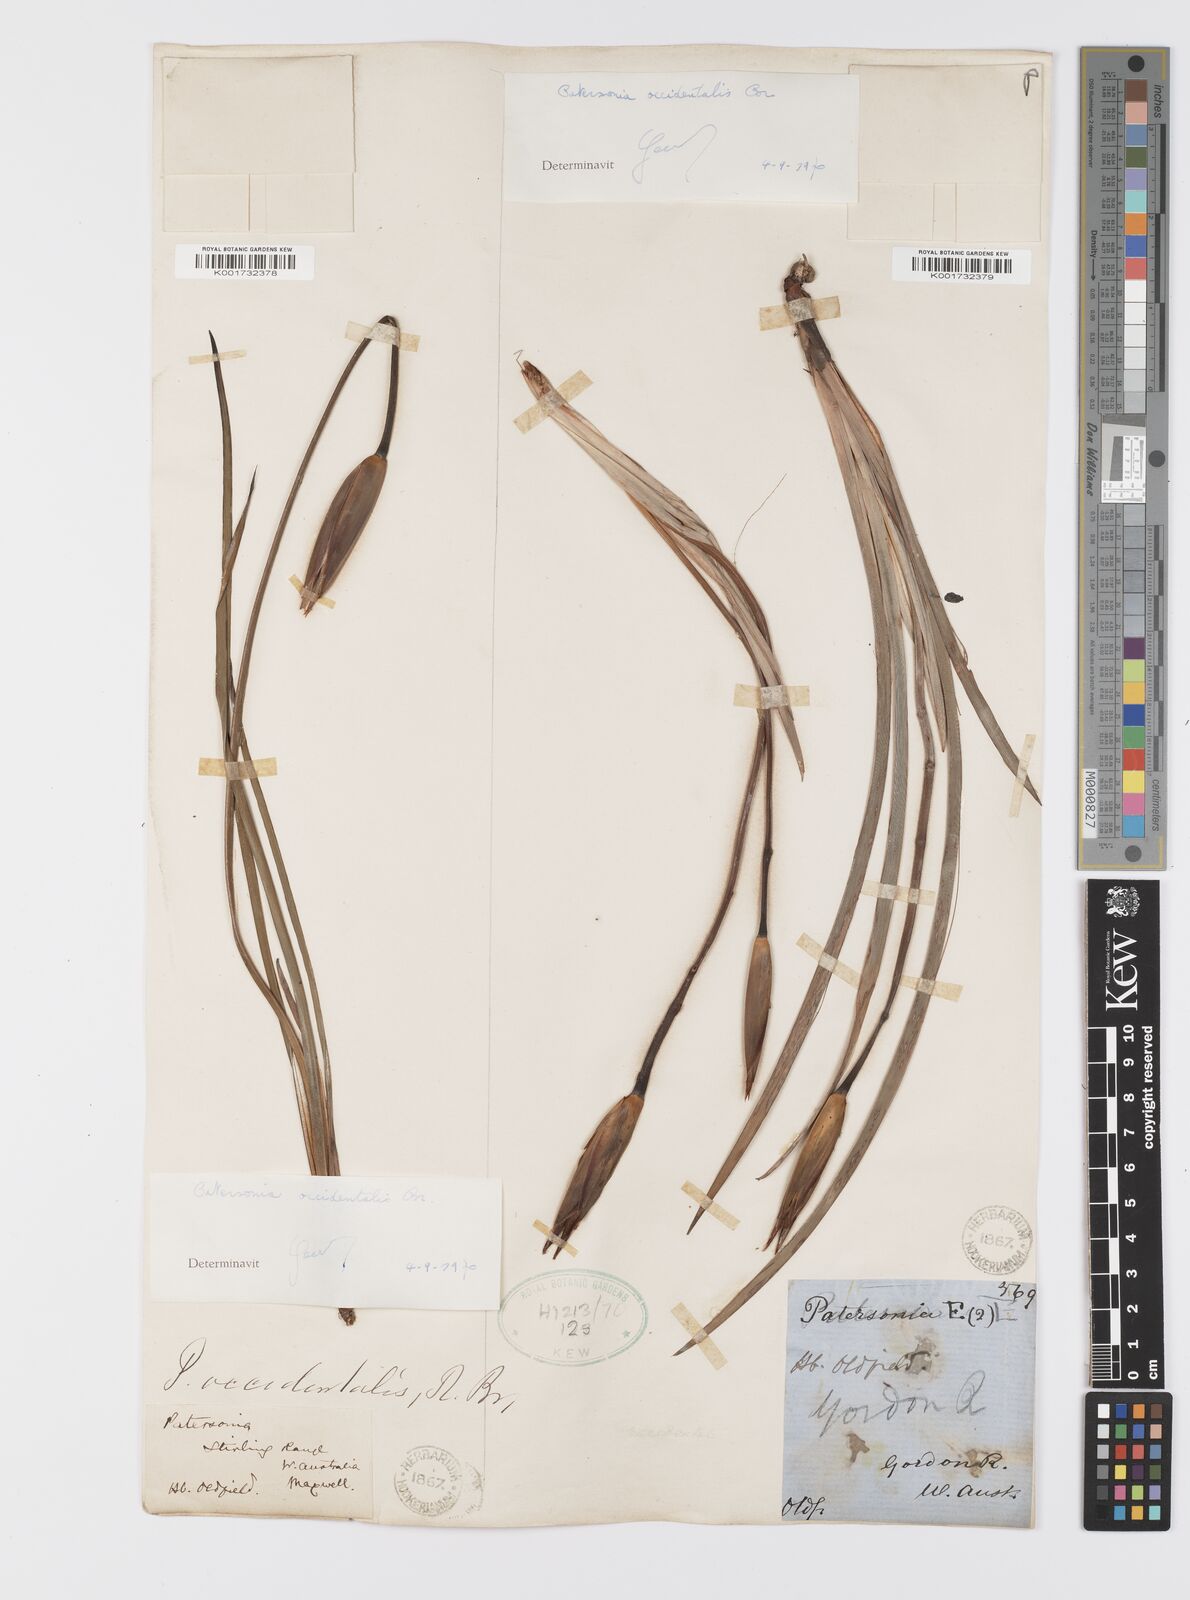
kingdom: Plantae
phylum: Tracheophyta
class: Liliopsida
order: Asparagales
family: Iridaceae
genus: Patersonia
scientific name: Patersonia occidentalis
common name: Long purple-flag
